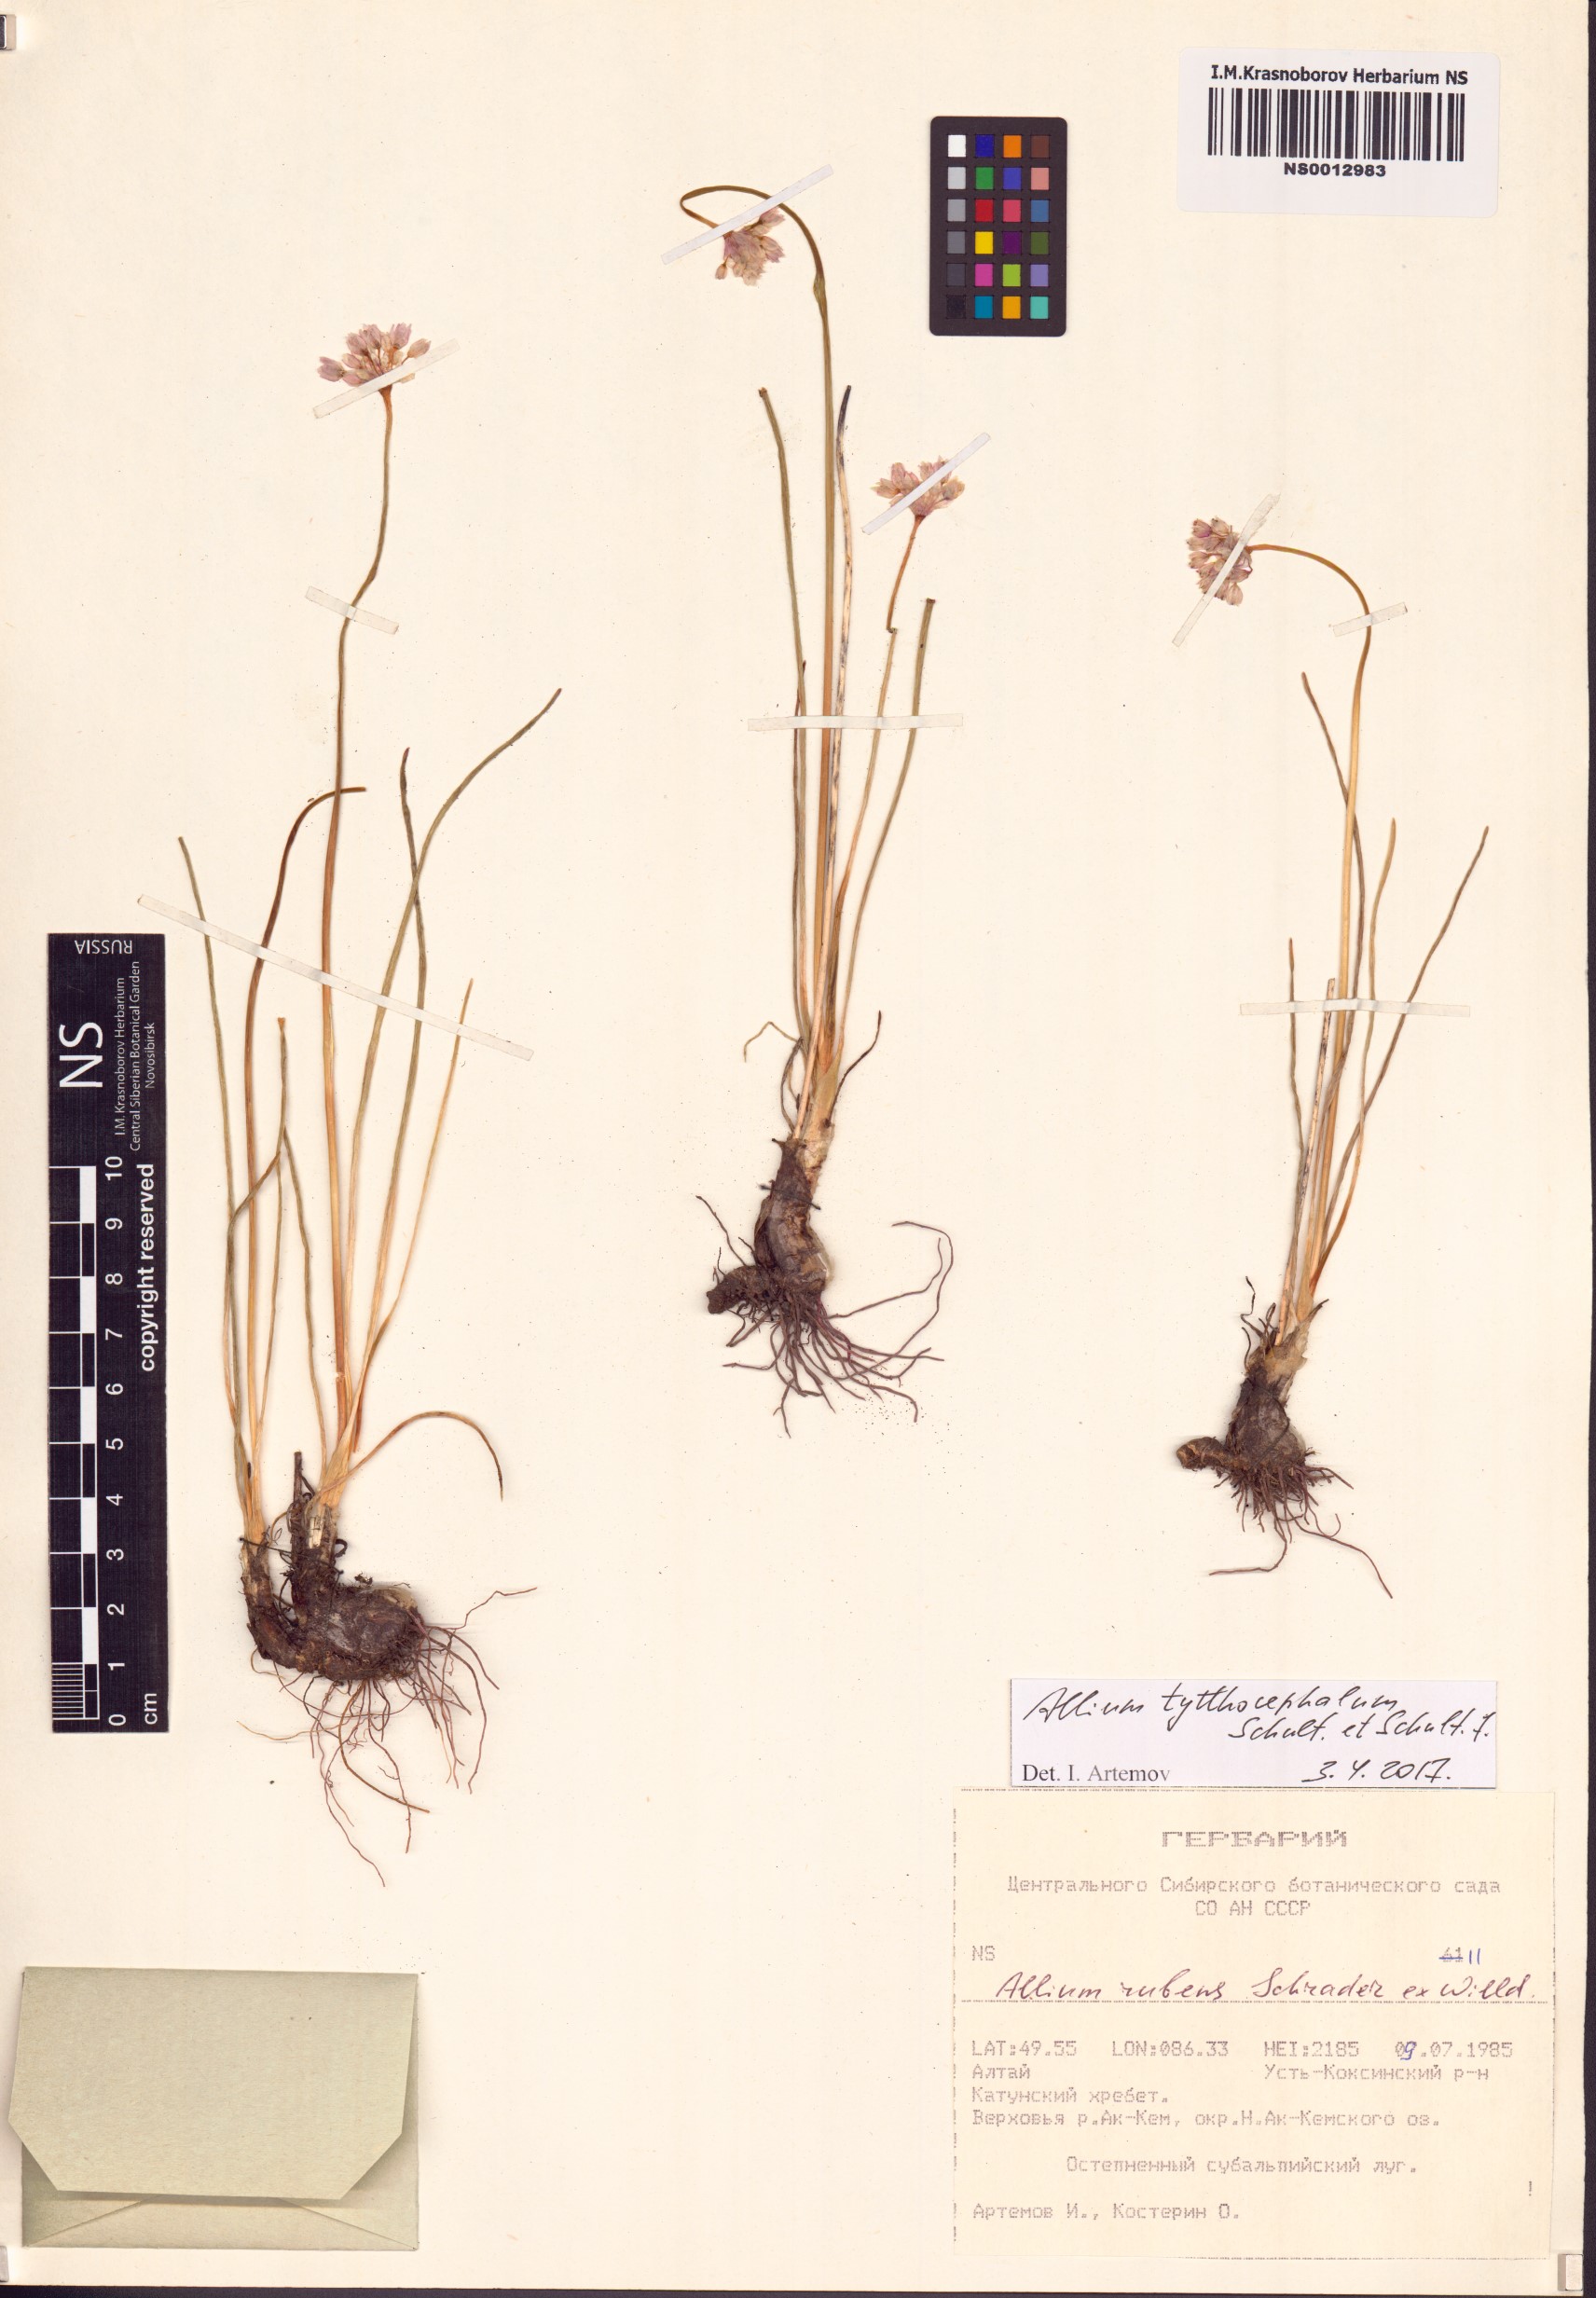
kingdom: Plantae
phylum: Tracheophyta
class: Liliopsida
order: Asparagales
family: Amaryllidaceae
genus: Allium
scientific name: Allium tytthocephalum
